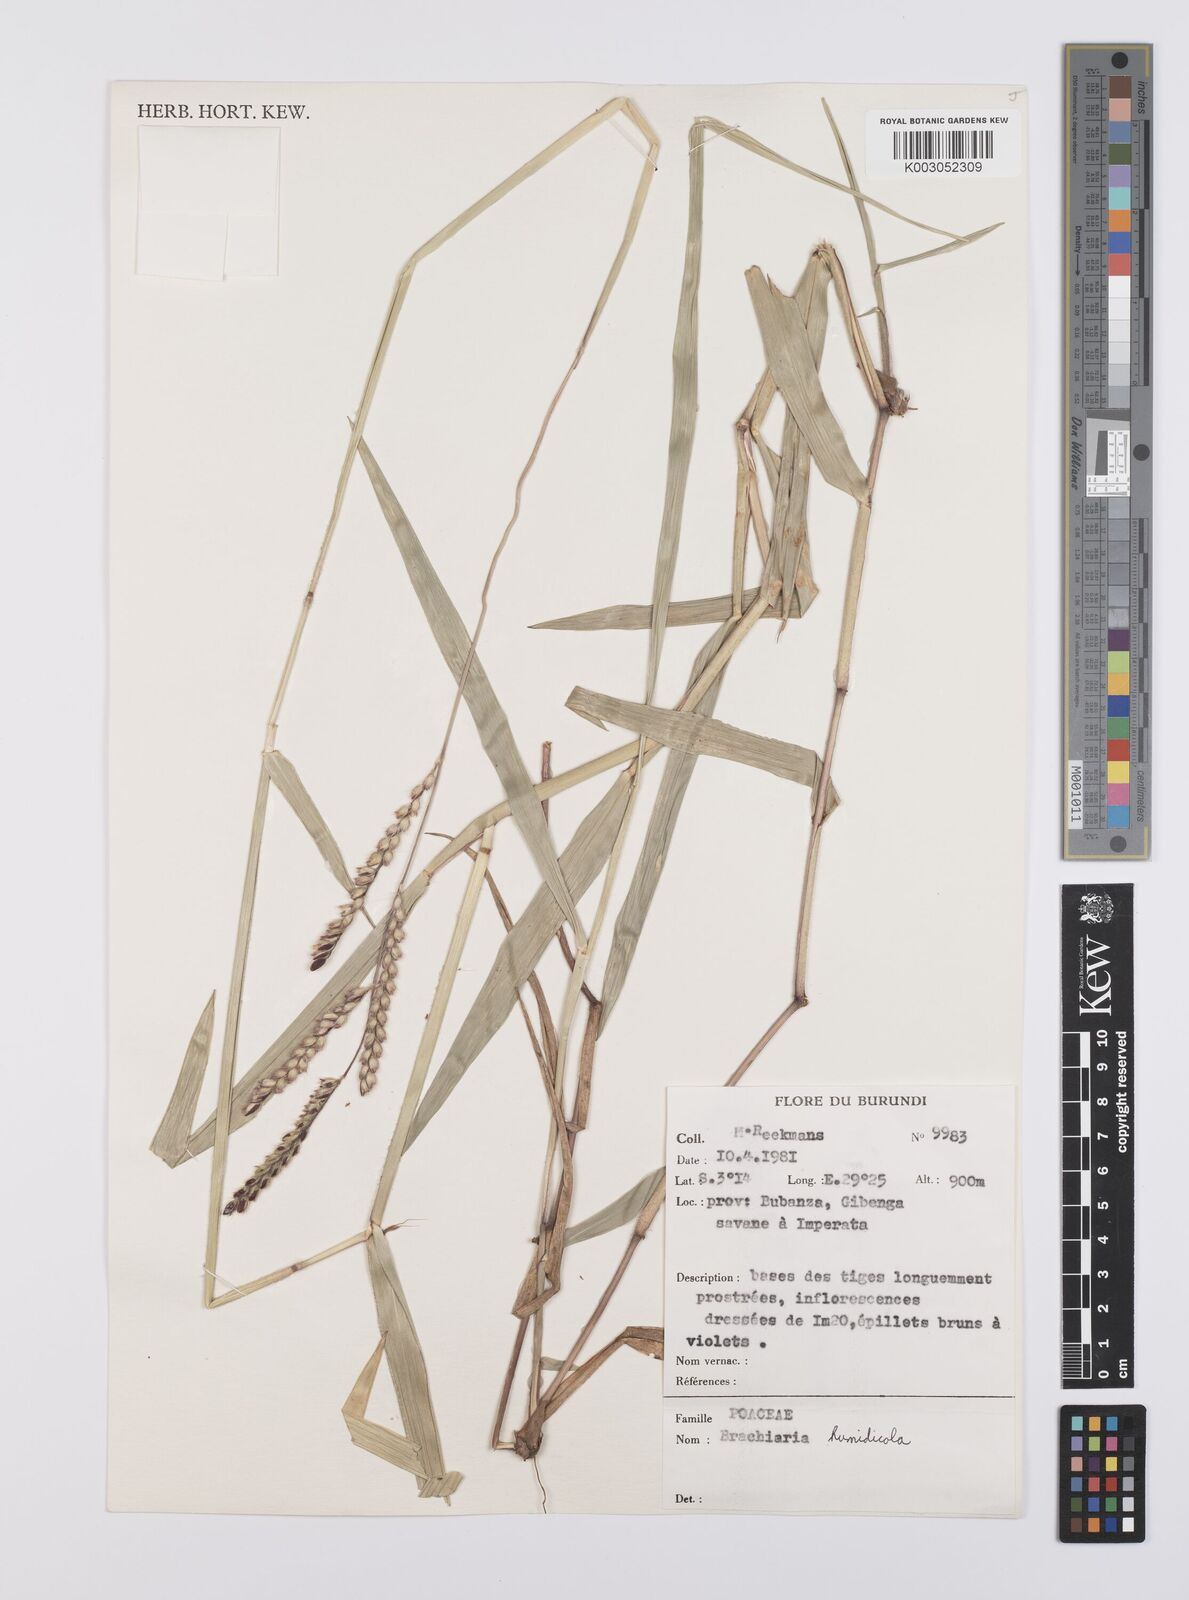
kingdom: Plantae
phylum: Tracheophyta
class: Liliopsida
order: Poales
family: Poaceae
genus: Urochloa
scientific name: Urochloa dictyoneura
